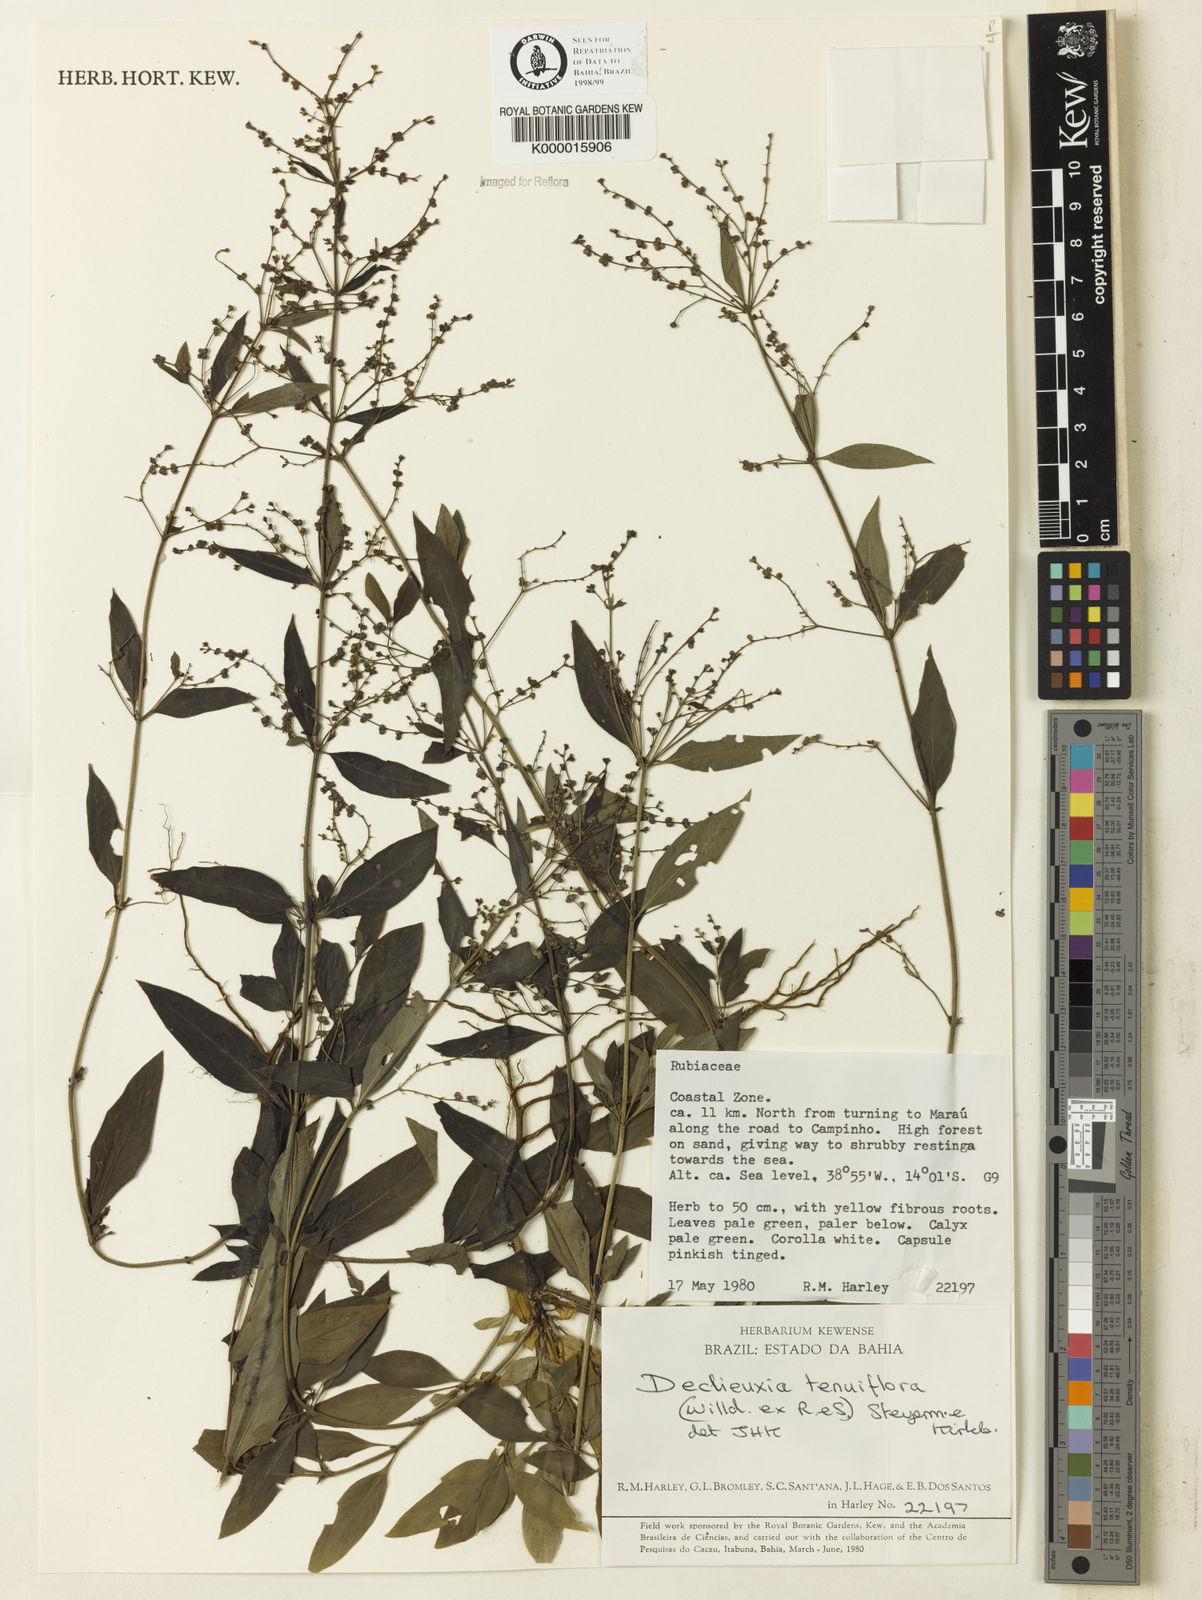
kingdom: Plantae
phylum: Tracheophyta
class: Magnoliopsida
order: Gentianales
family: Rubiaceae
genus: Declieuxia
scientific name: Declieuxia tenuiflora
